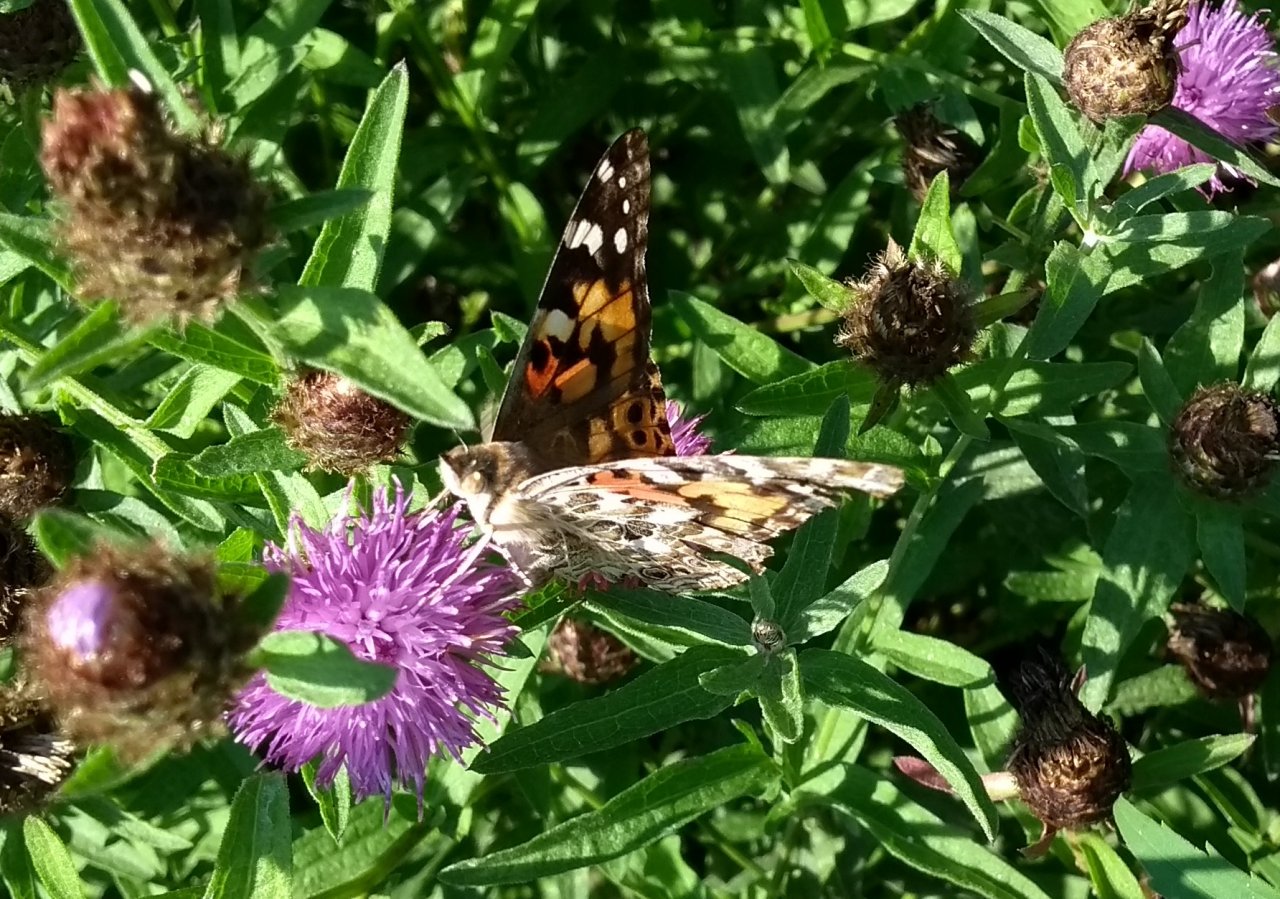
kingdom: Animalia
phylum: Arthropoda
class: Insecta
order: Lepidoptera
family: Nymphalidae
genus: Vanessa
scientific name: Vanessa cardui
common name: Painted Lady
